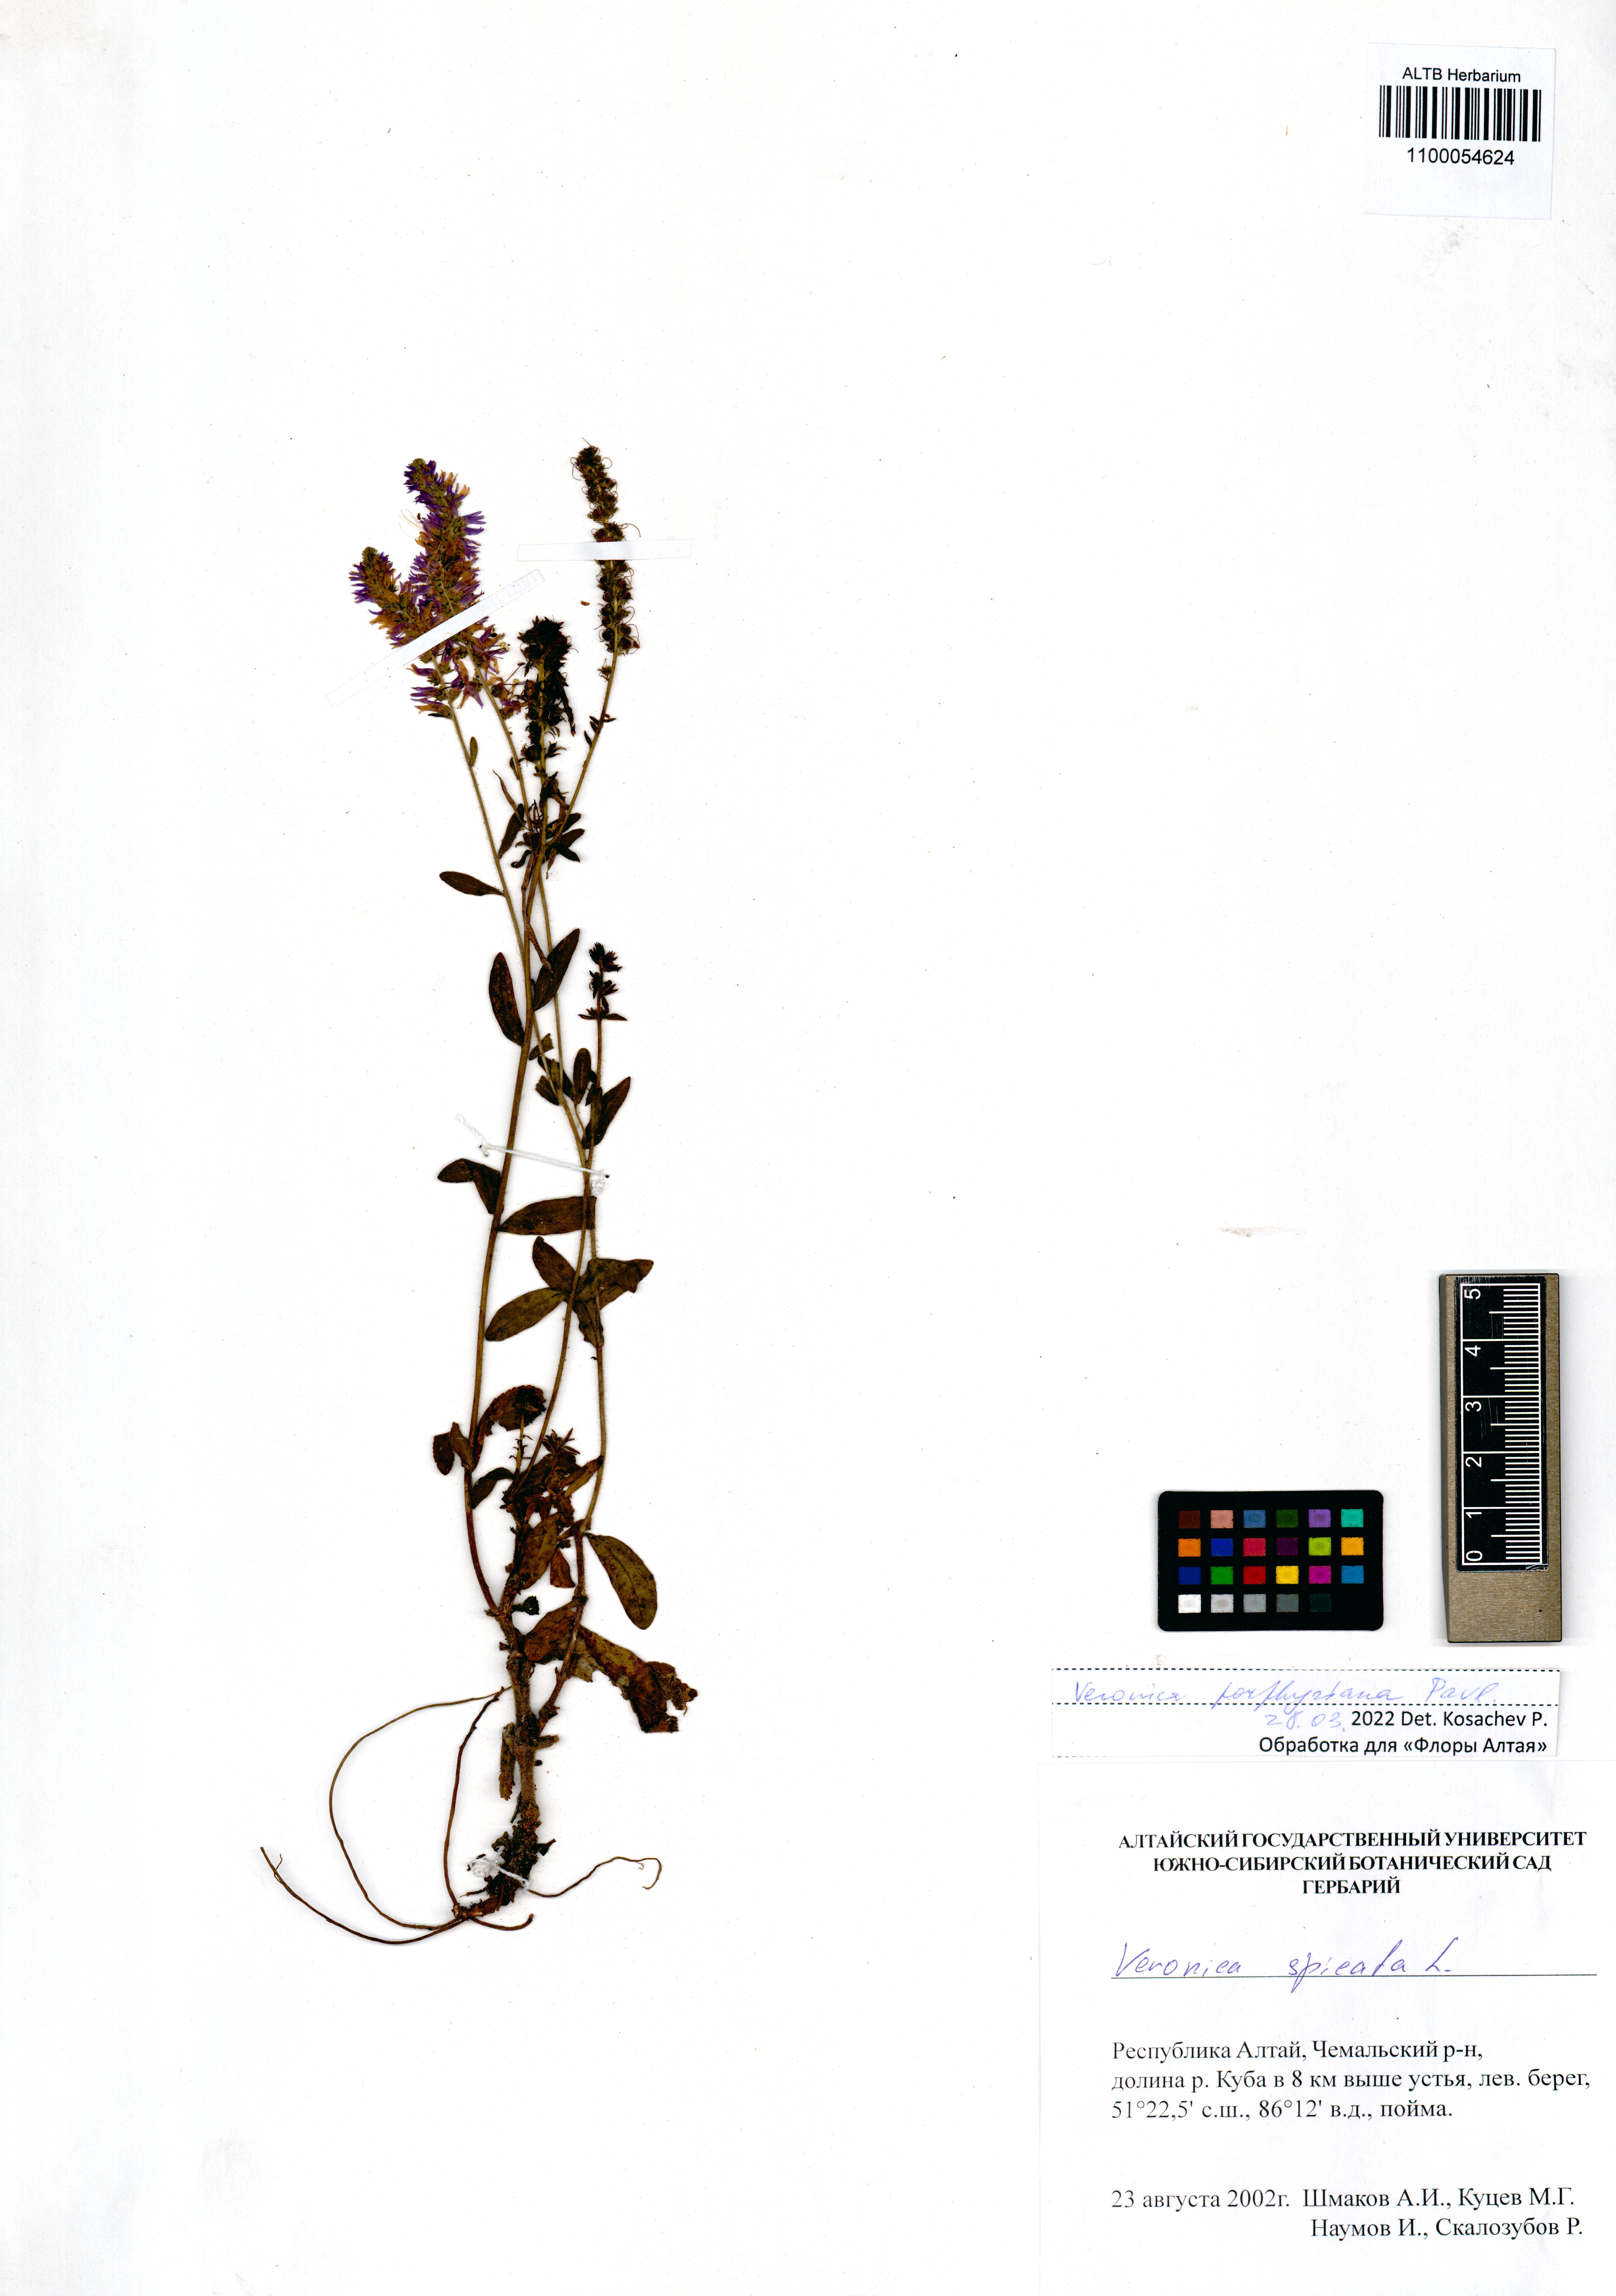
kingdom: Plantae
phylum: Tracheophyta
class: Magnoliopsida
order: Lamiales
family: Plantaginaceae
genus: Veronica
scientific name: Veronica porphyriana
